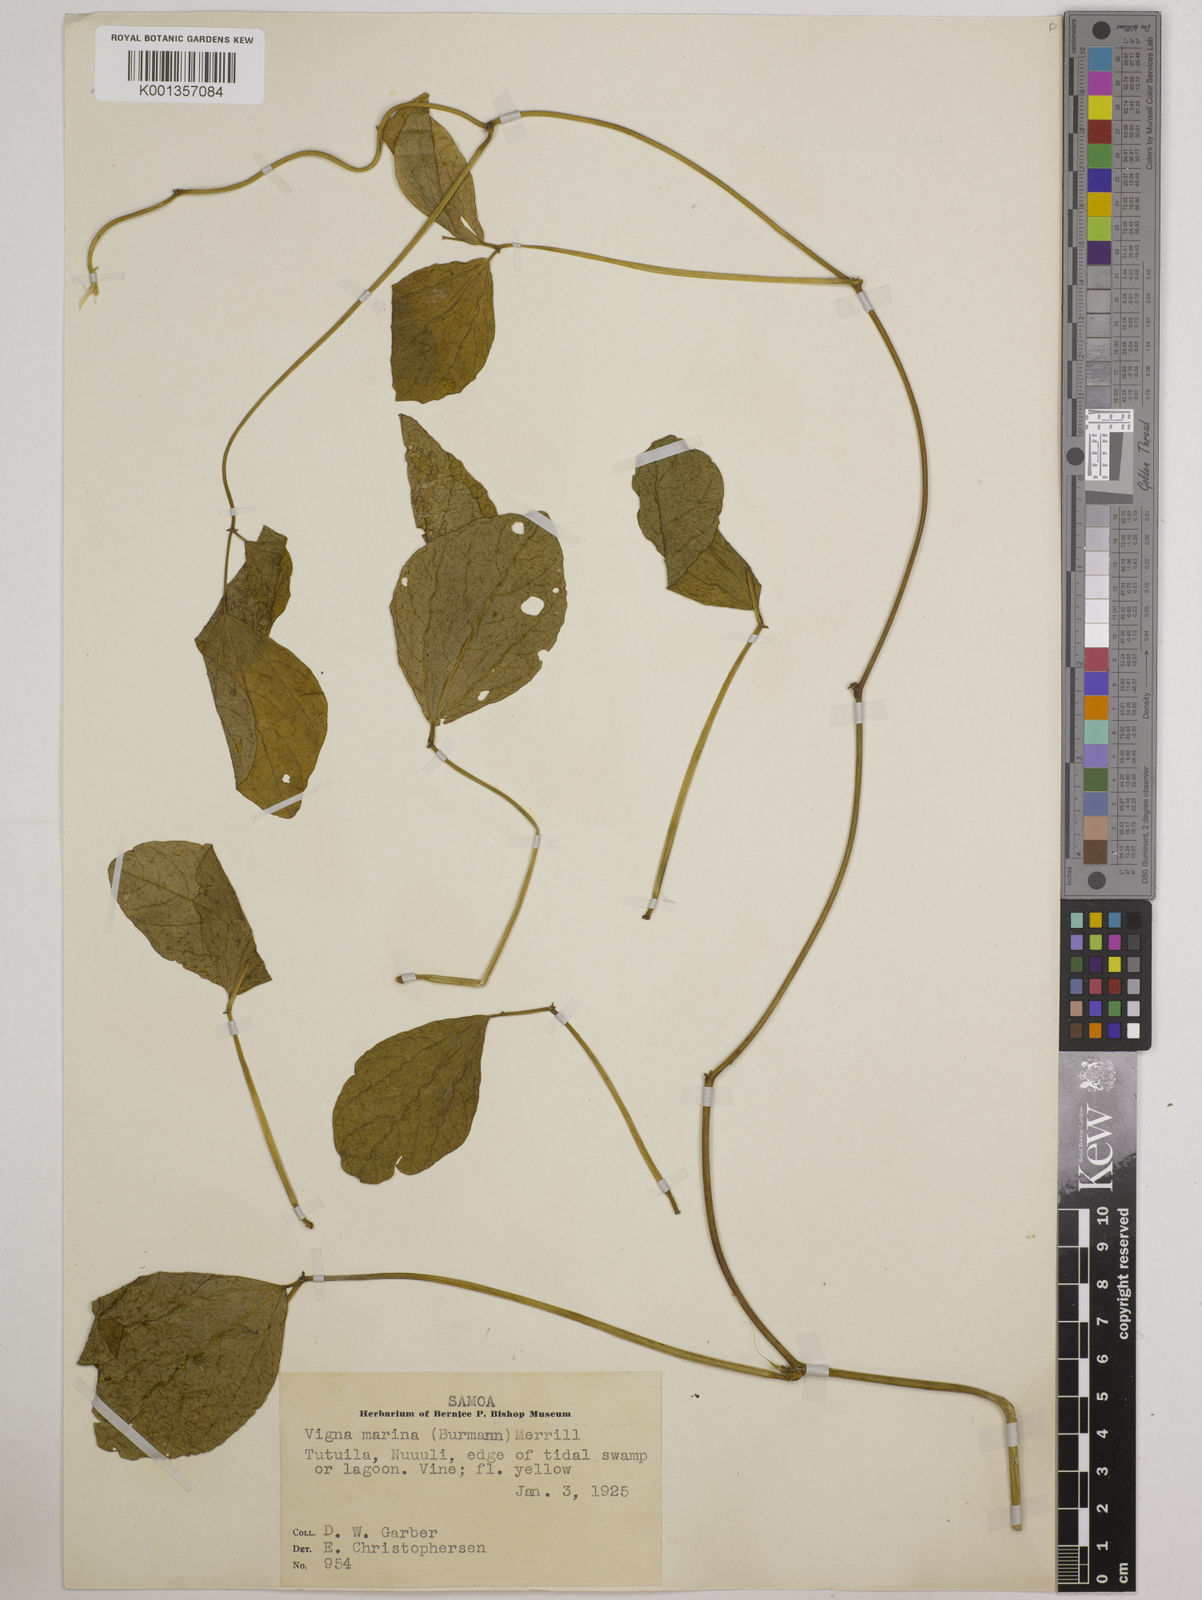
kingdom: Plantae
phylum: Tracheophyta
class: Magnoliopsida
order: Fabales
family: Fabaceae
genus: Vigna
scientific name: Vigna marina
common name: Dune-bean
